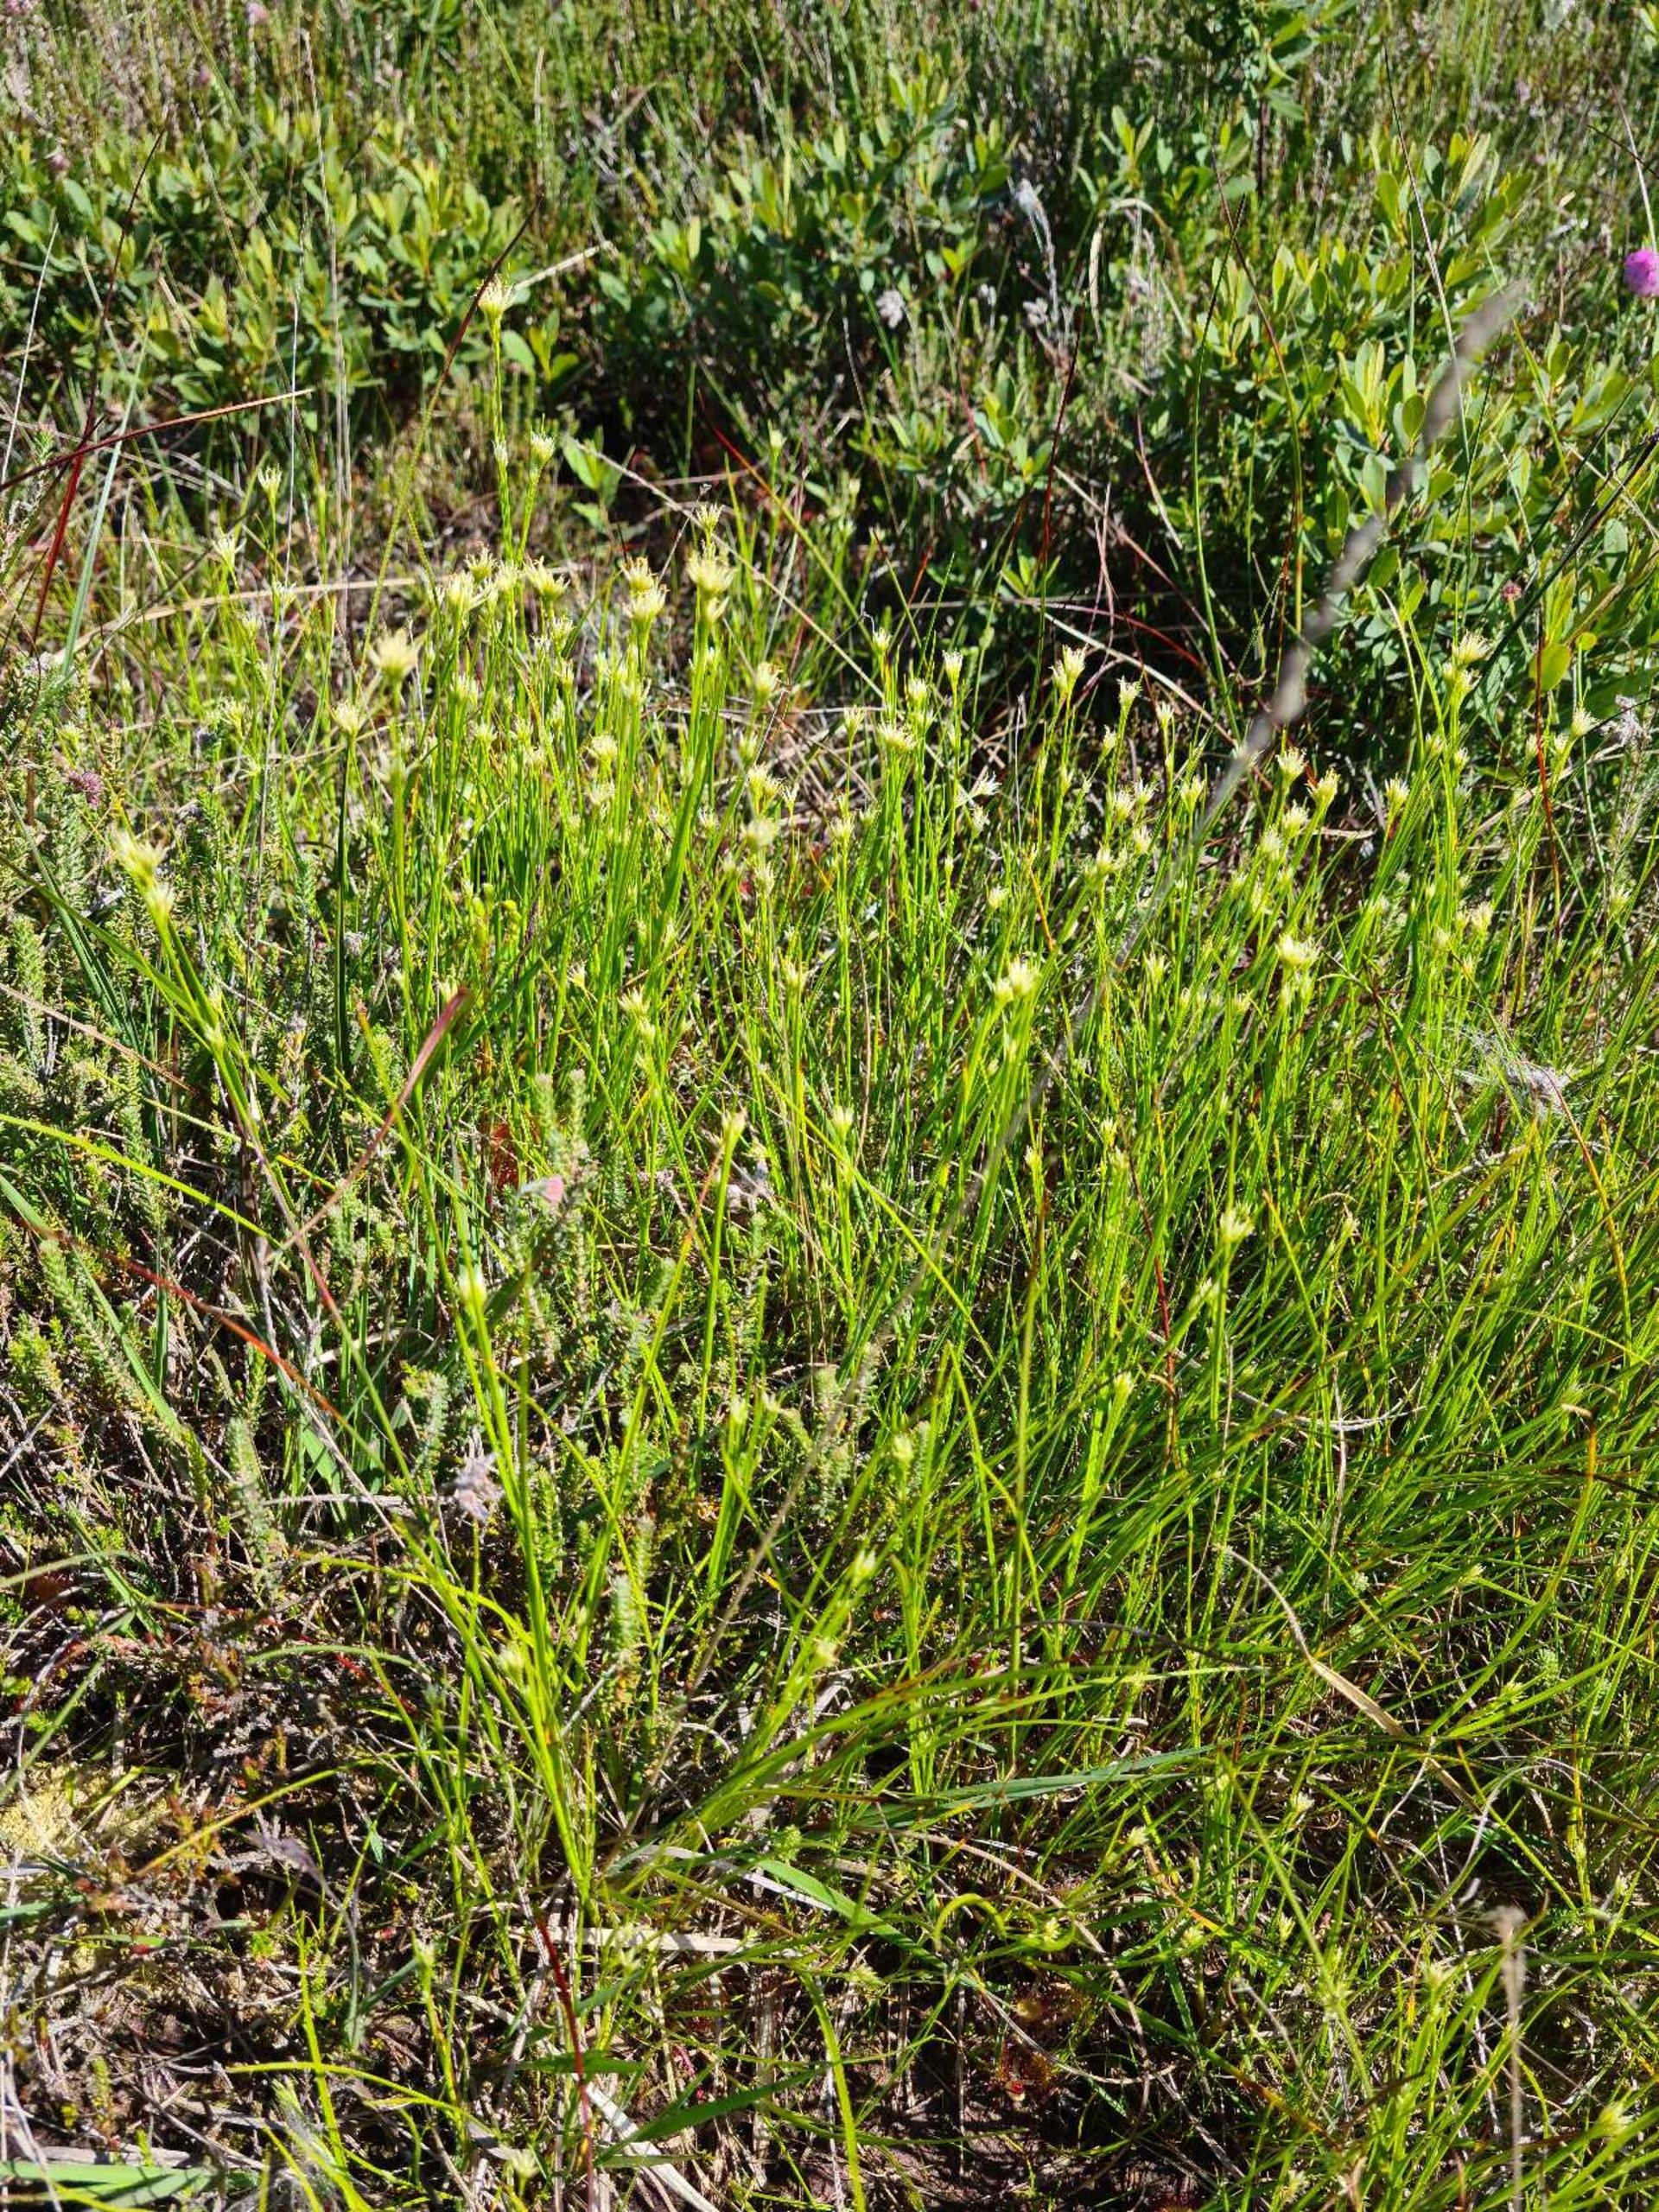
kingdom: Plantae
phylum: Tracheophyta
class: Liliopsida
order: Poales
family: Cyperaceae
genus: Rhynchospora
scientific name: Rhynchospora alba
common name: Hvid næbfrø
